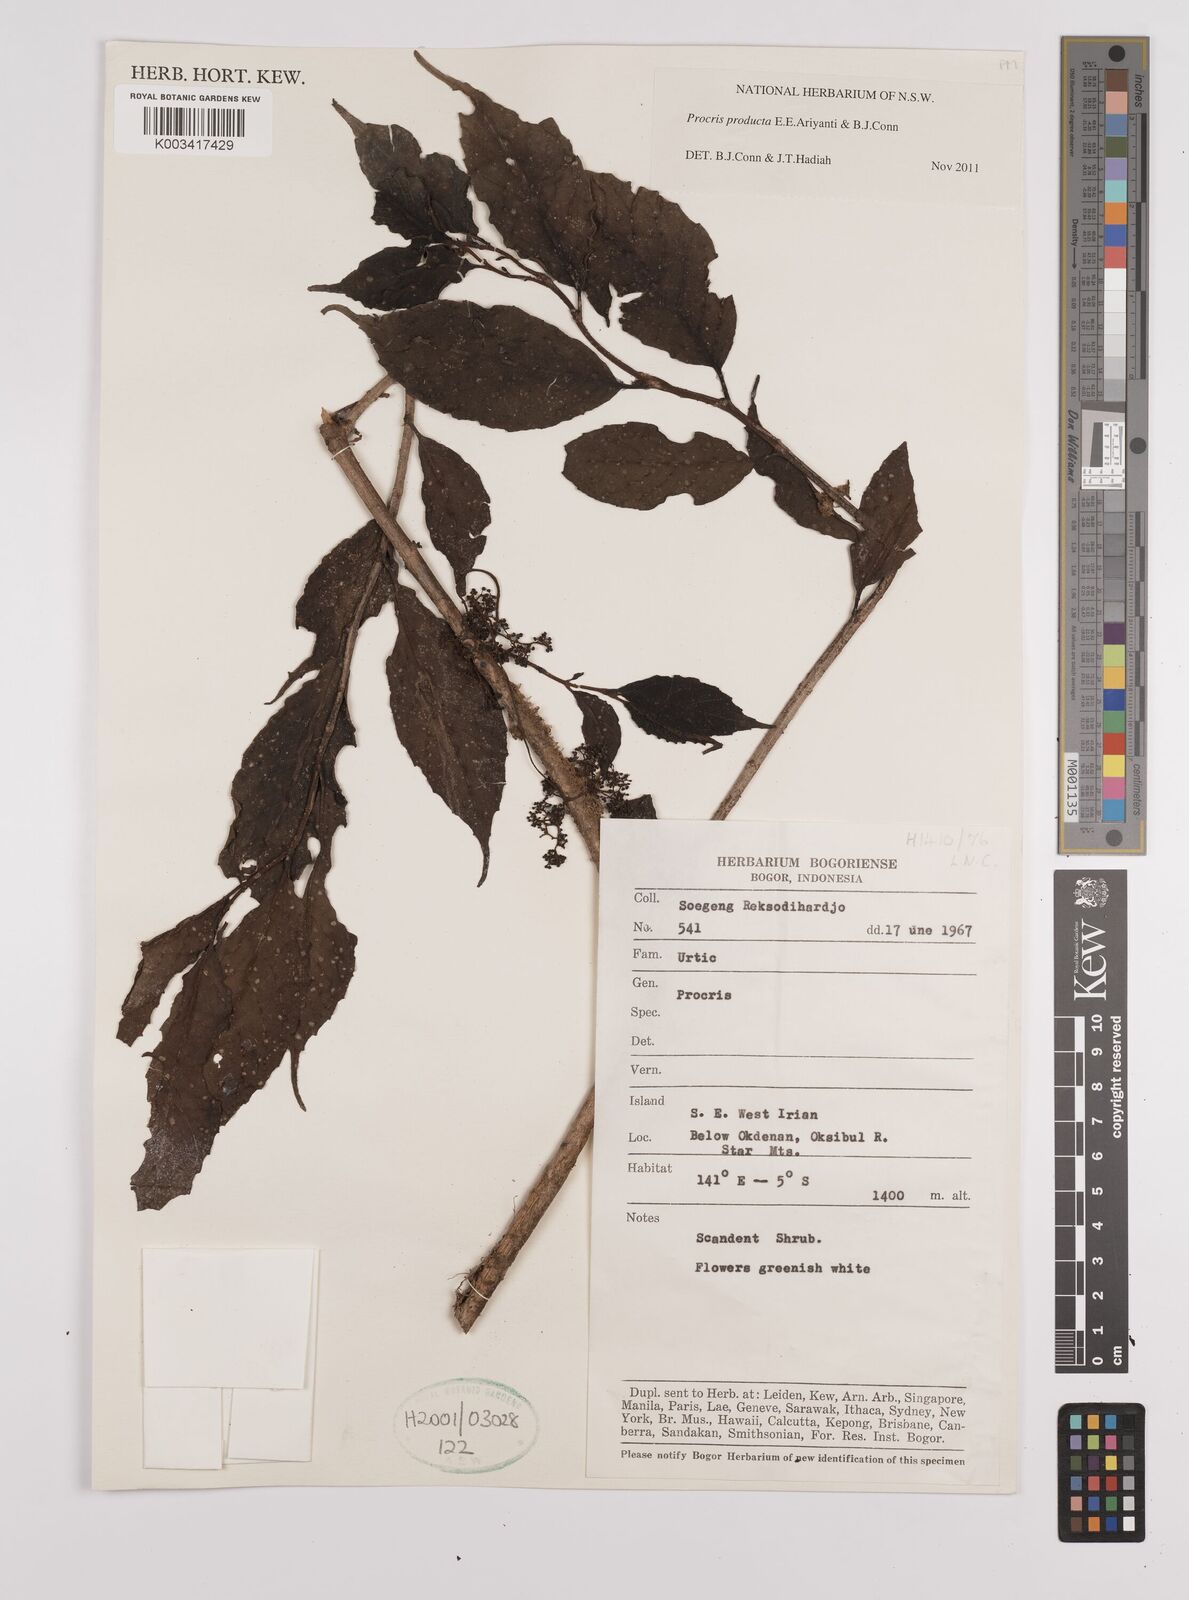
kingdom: Plantae
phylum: Tracheophyta
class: Magnoliopsida
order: Rosales
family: Urticaceae
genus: Procris
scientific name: Procris
